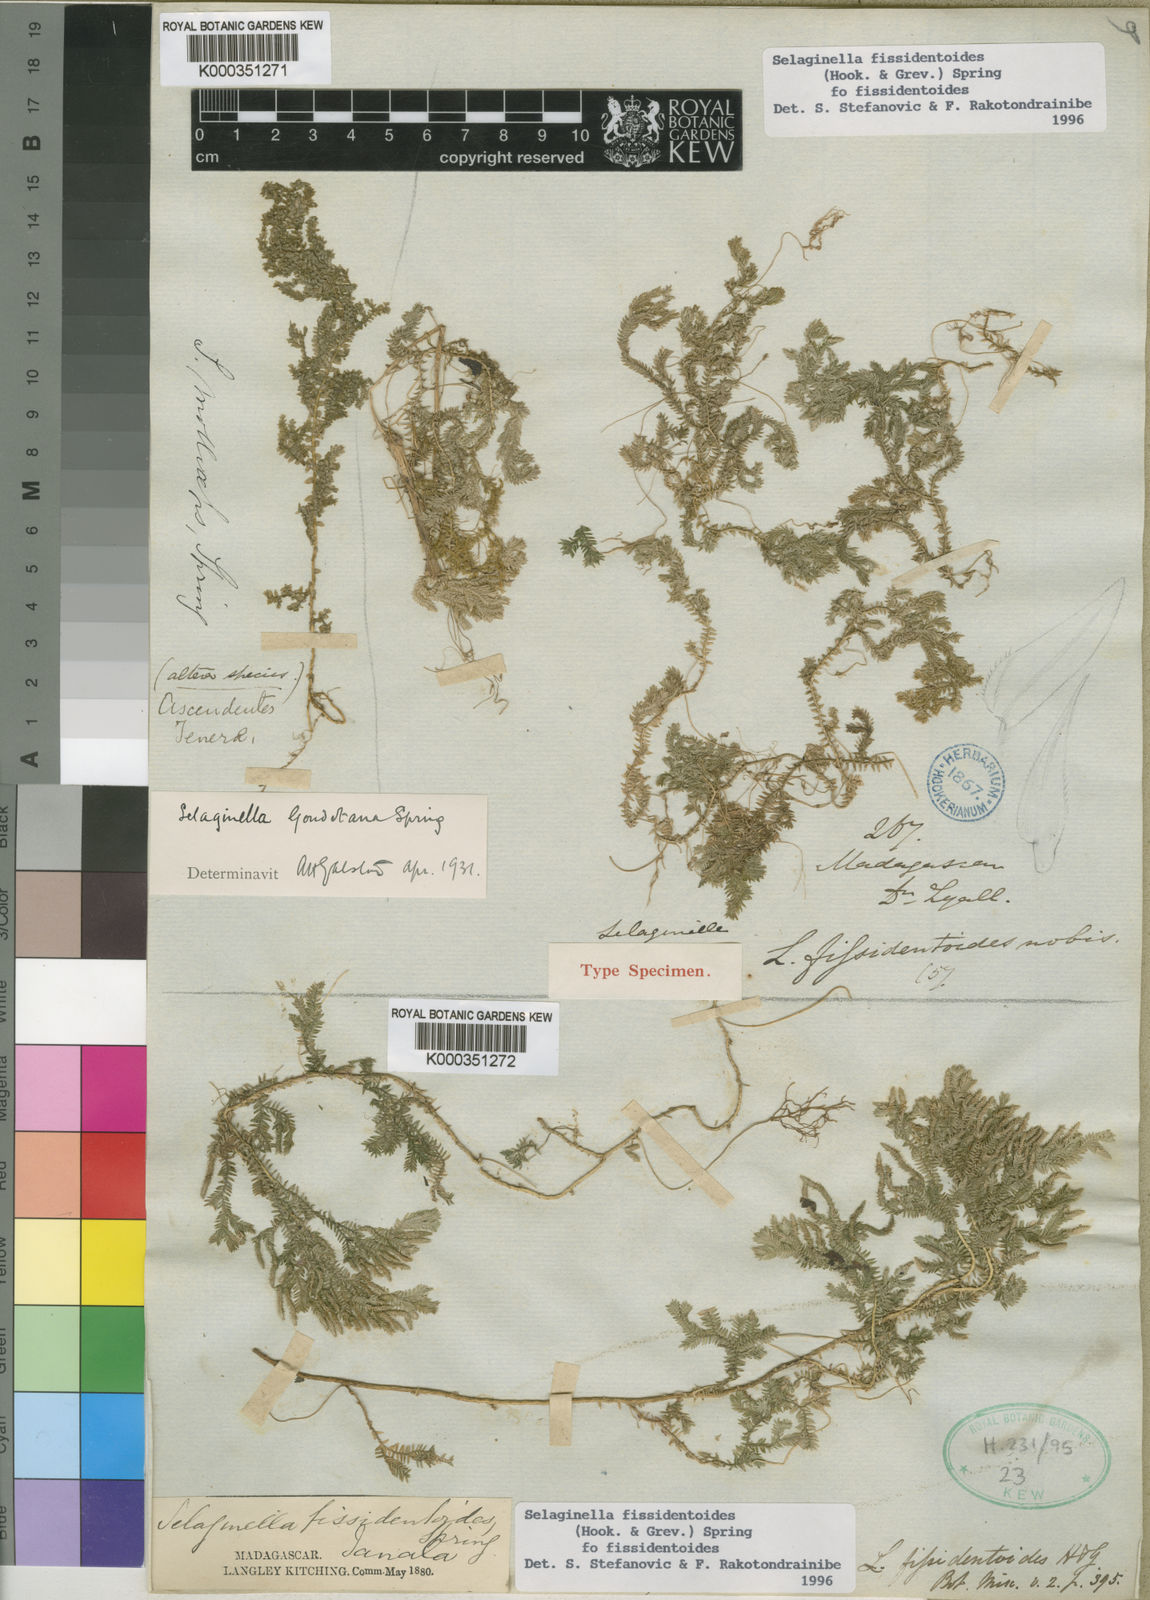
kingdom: Plantae
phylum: Tracheophyta
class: Lycopodiopsida
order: Selaginellales
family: Selaginellaceae
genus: Selaginella
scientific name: Selaginella fissidentoides
